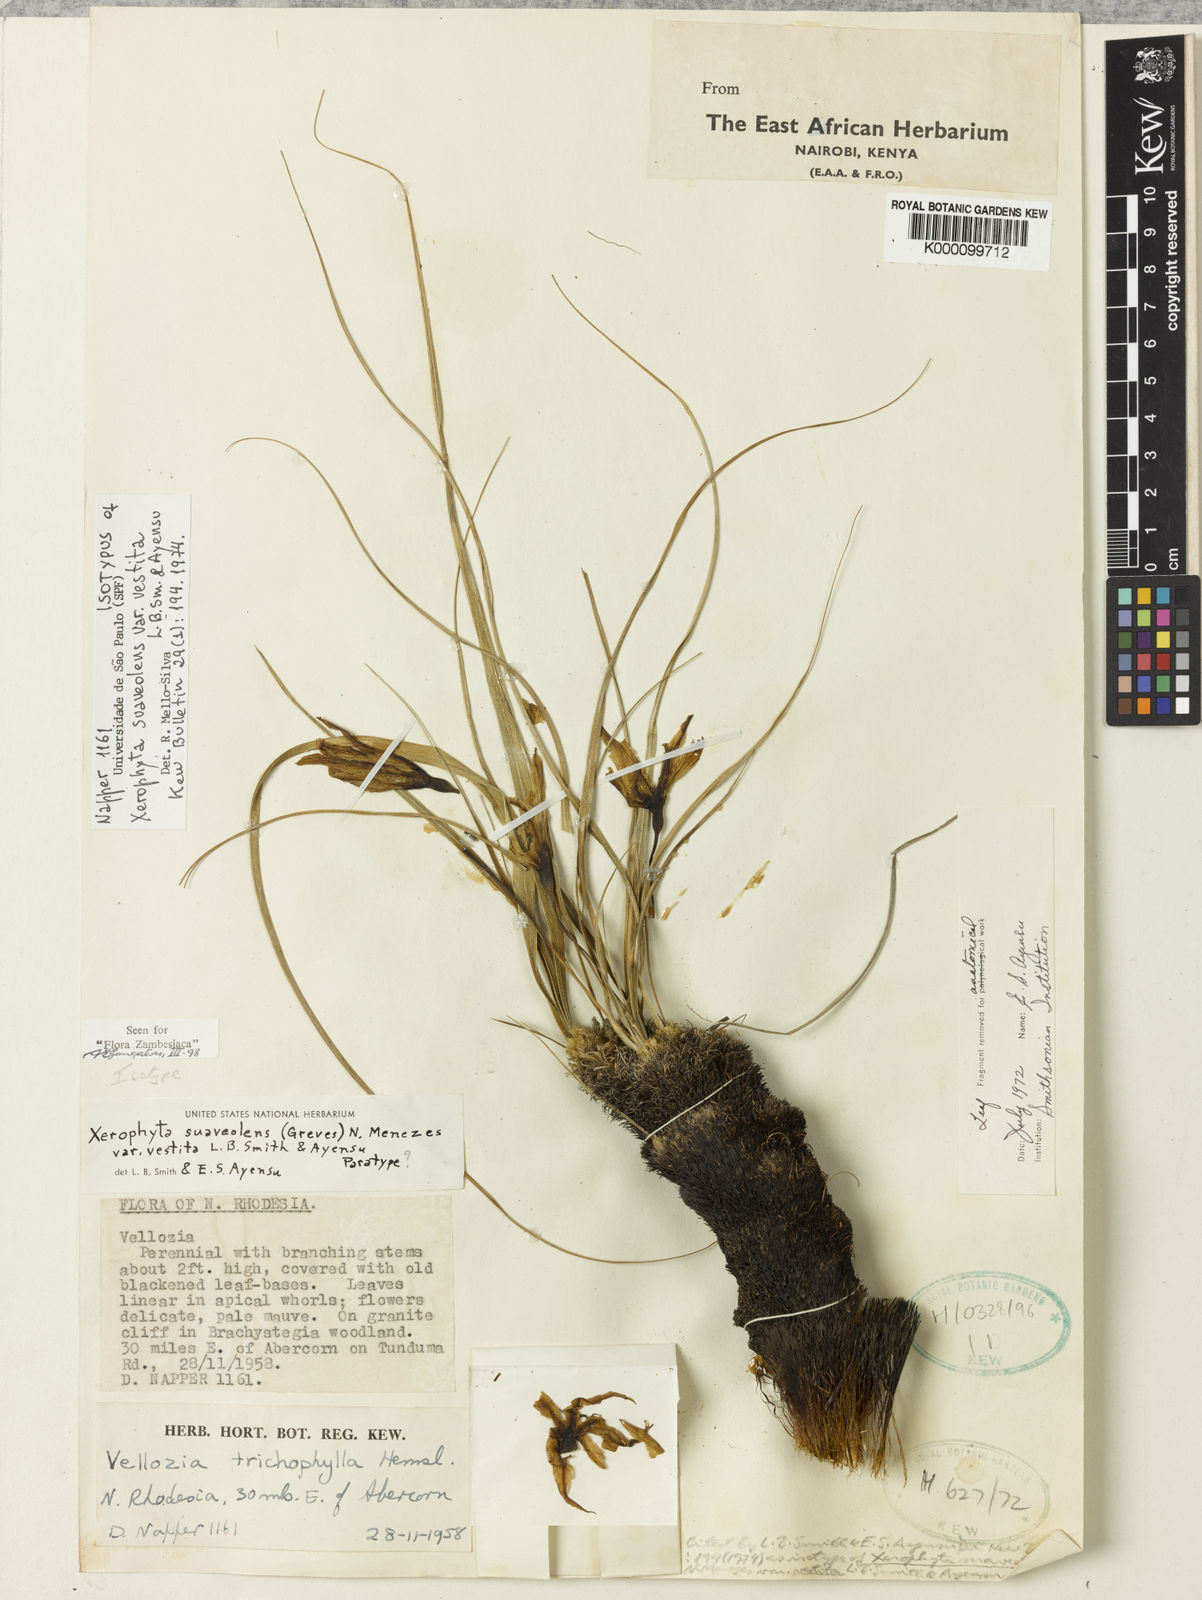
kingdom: Plantae
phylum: Tracheophyta
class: Liliopsida
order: Pandanales
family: Velloziaceae
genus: Xerophyta
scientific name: Xerophyta suaveolens
